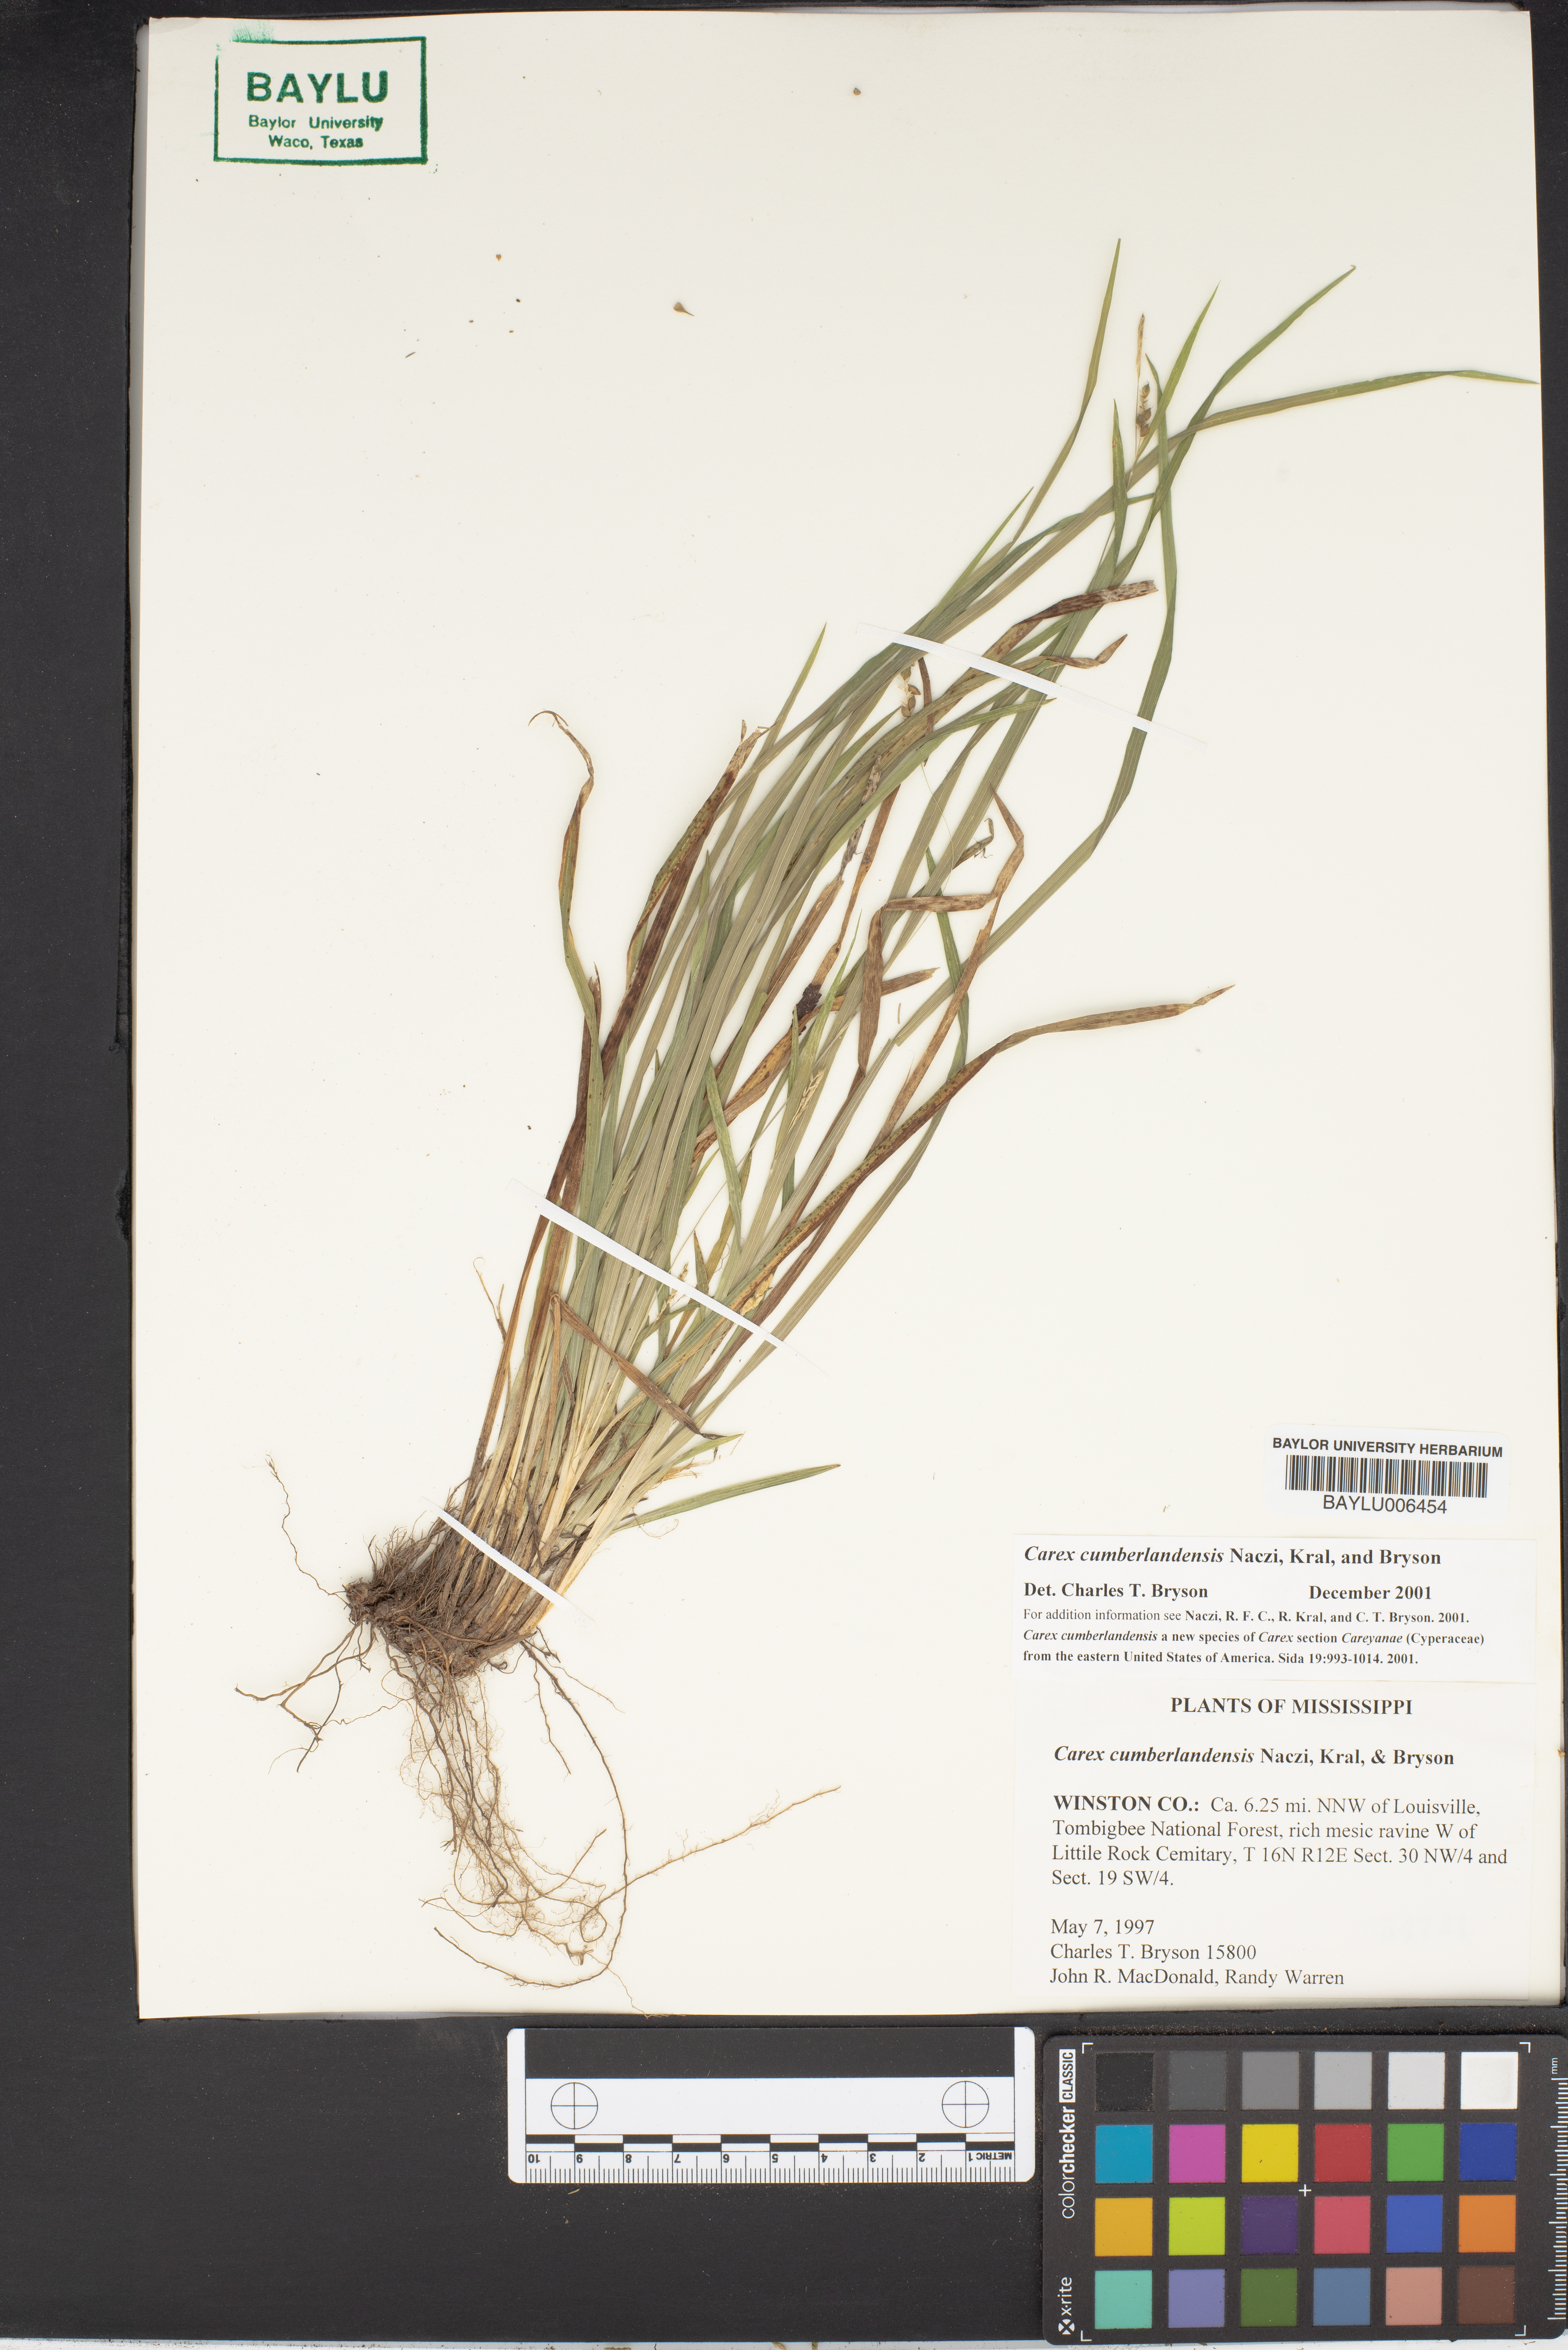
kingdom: Plantae
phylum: Tracheophyta
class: Liliopsida
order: Poales
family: Cyperaceae
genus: Carex
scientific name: Carex cumberlandensis
